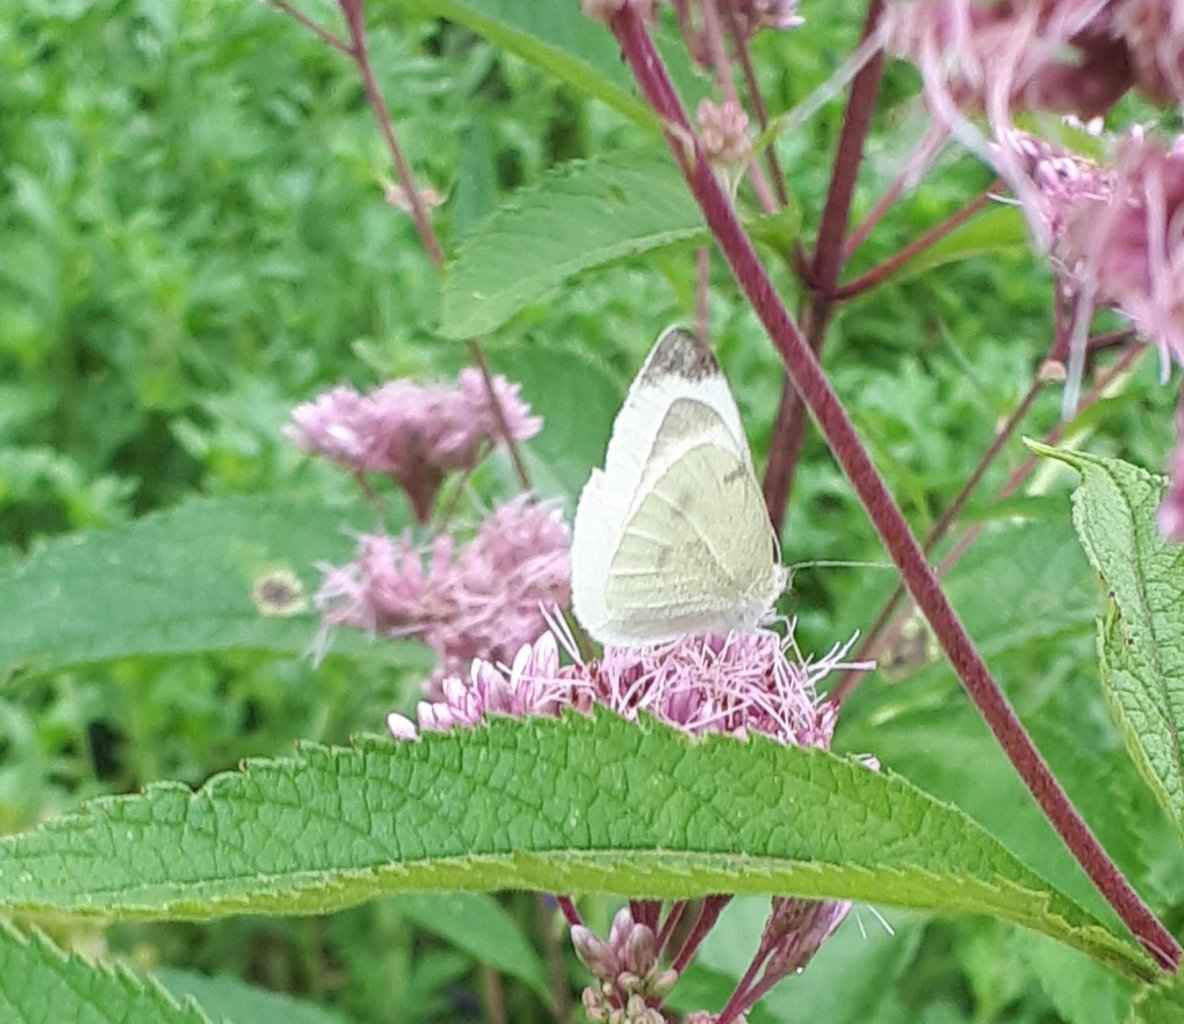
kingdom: Animalia
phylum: Arthropoda
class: Insecta
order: Lepidoptera
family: Pieridae
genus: Pieris
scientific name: Pieris rapae
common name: Cabbage White
